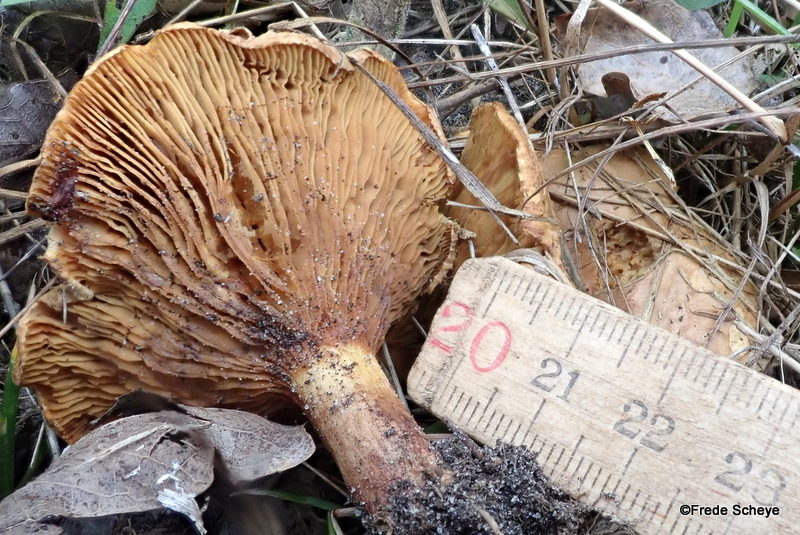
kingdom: Fungi
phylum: Basidiomycota
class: Agaricomycetes
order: Boletales
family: Paxillaceae
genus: Paxillus
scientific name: Paxillus involutus
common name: almindelig netbladhat
